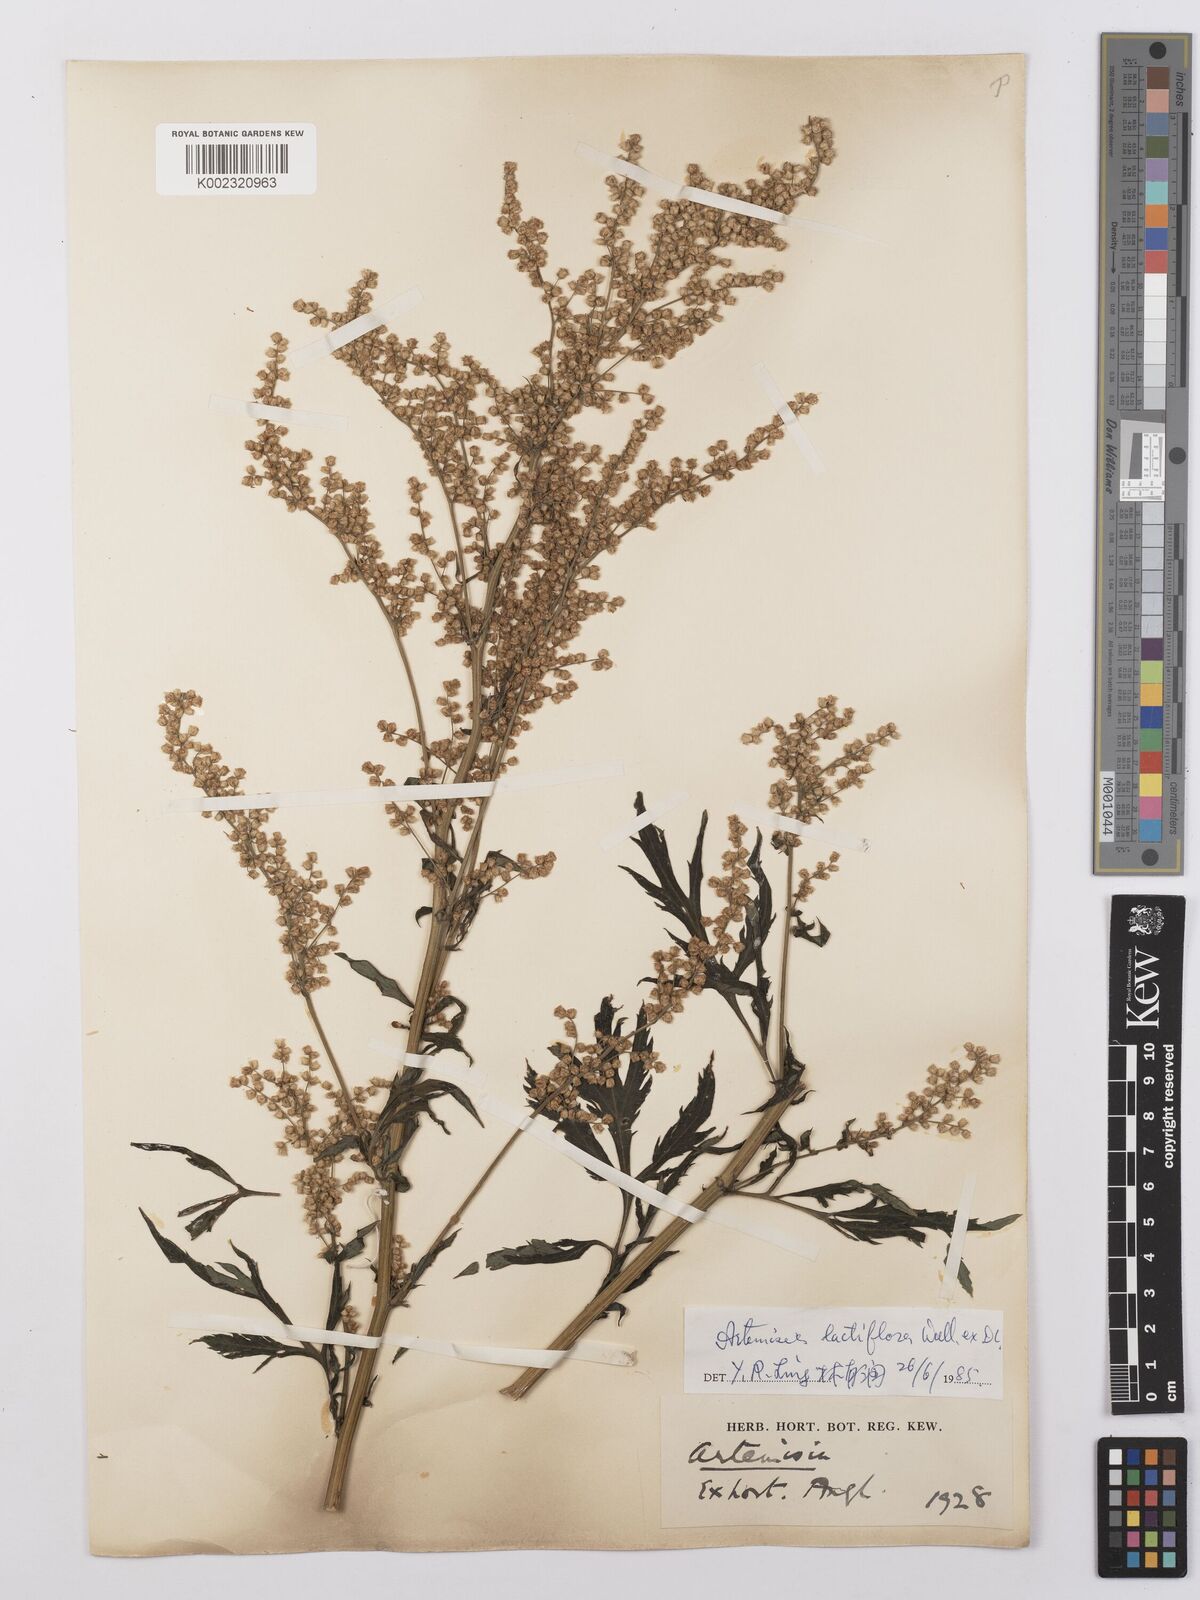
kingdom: Plantae
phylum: Tracheophyta
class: Magnoliopsida
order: Asterales
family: Asteraceae
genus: Artemisia
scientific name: Artemisia
